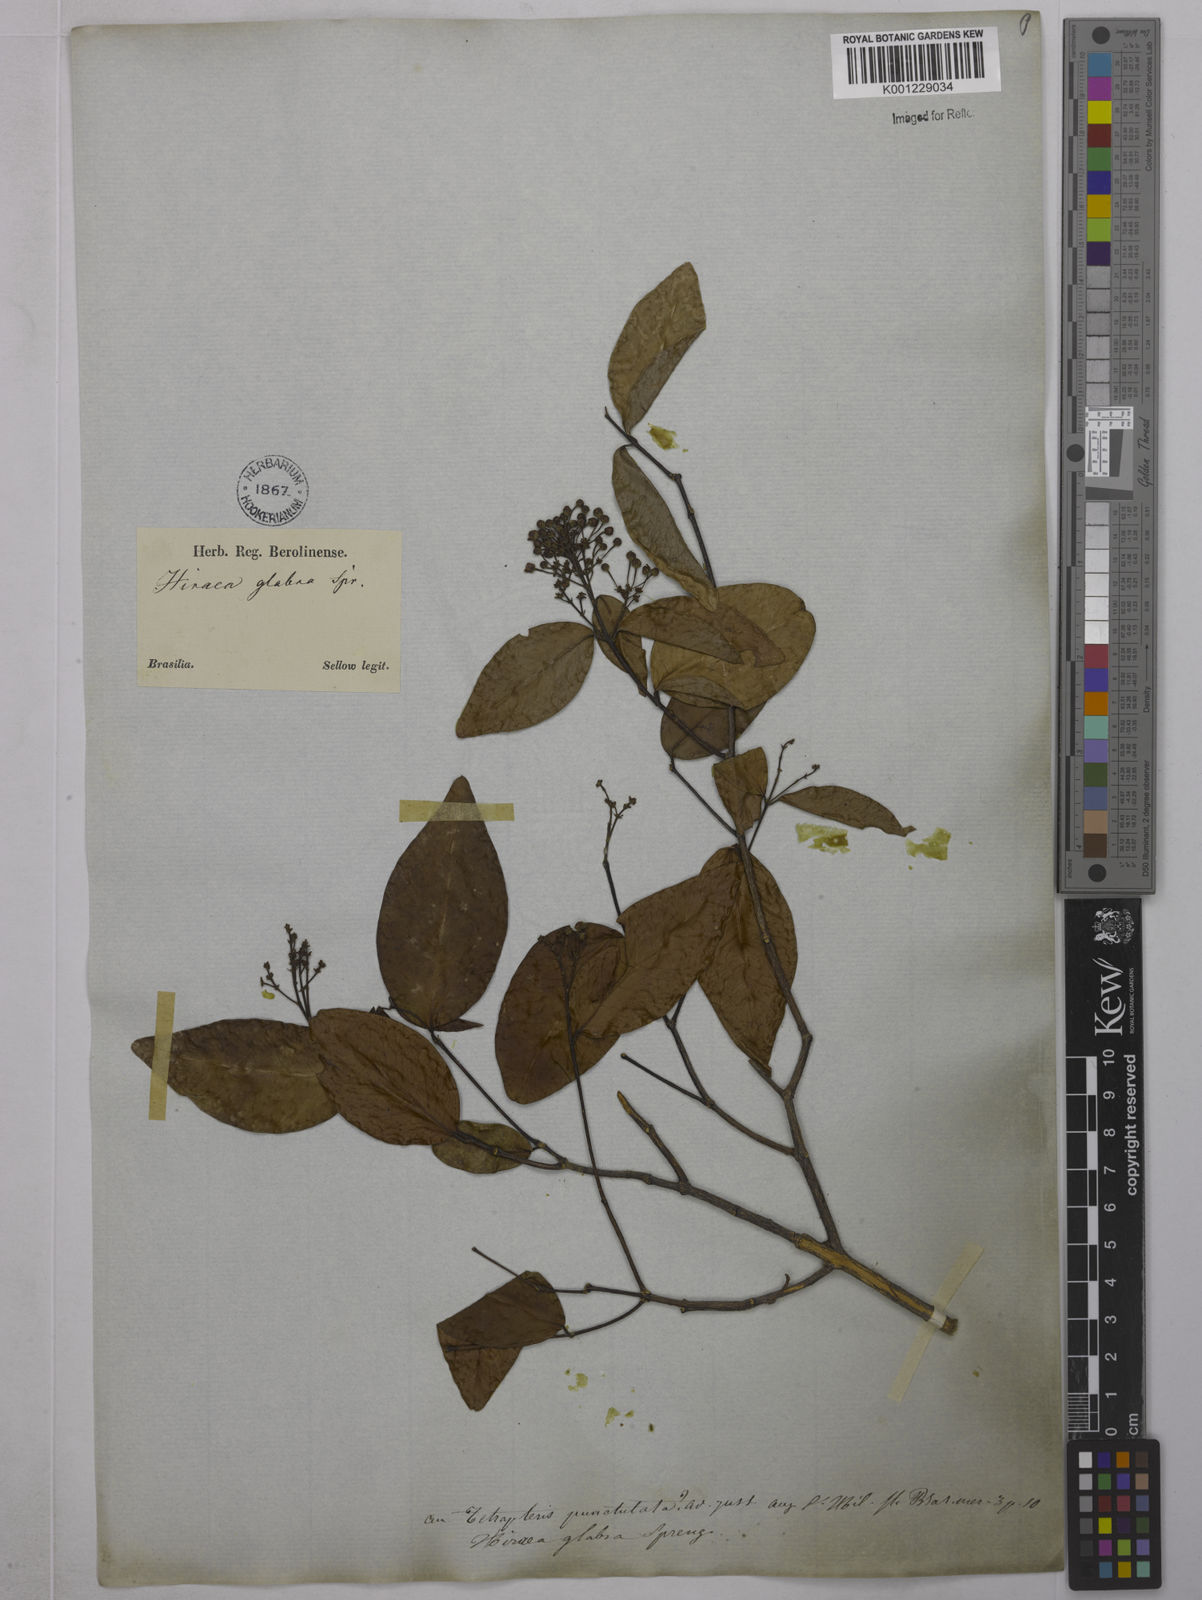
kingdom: Plantae
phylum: Tracheophyta
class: Magnoliopsida
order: Malpighiales
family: Malpighiaceae
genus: Niedenzuella
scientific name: Niedenzuella acutifolia
